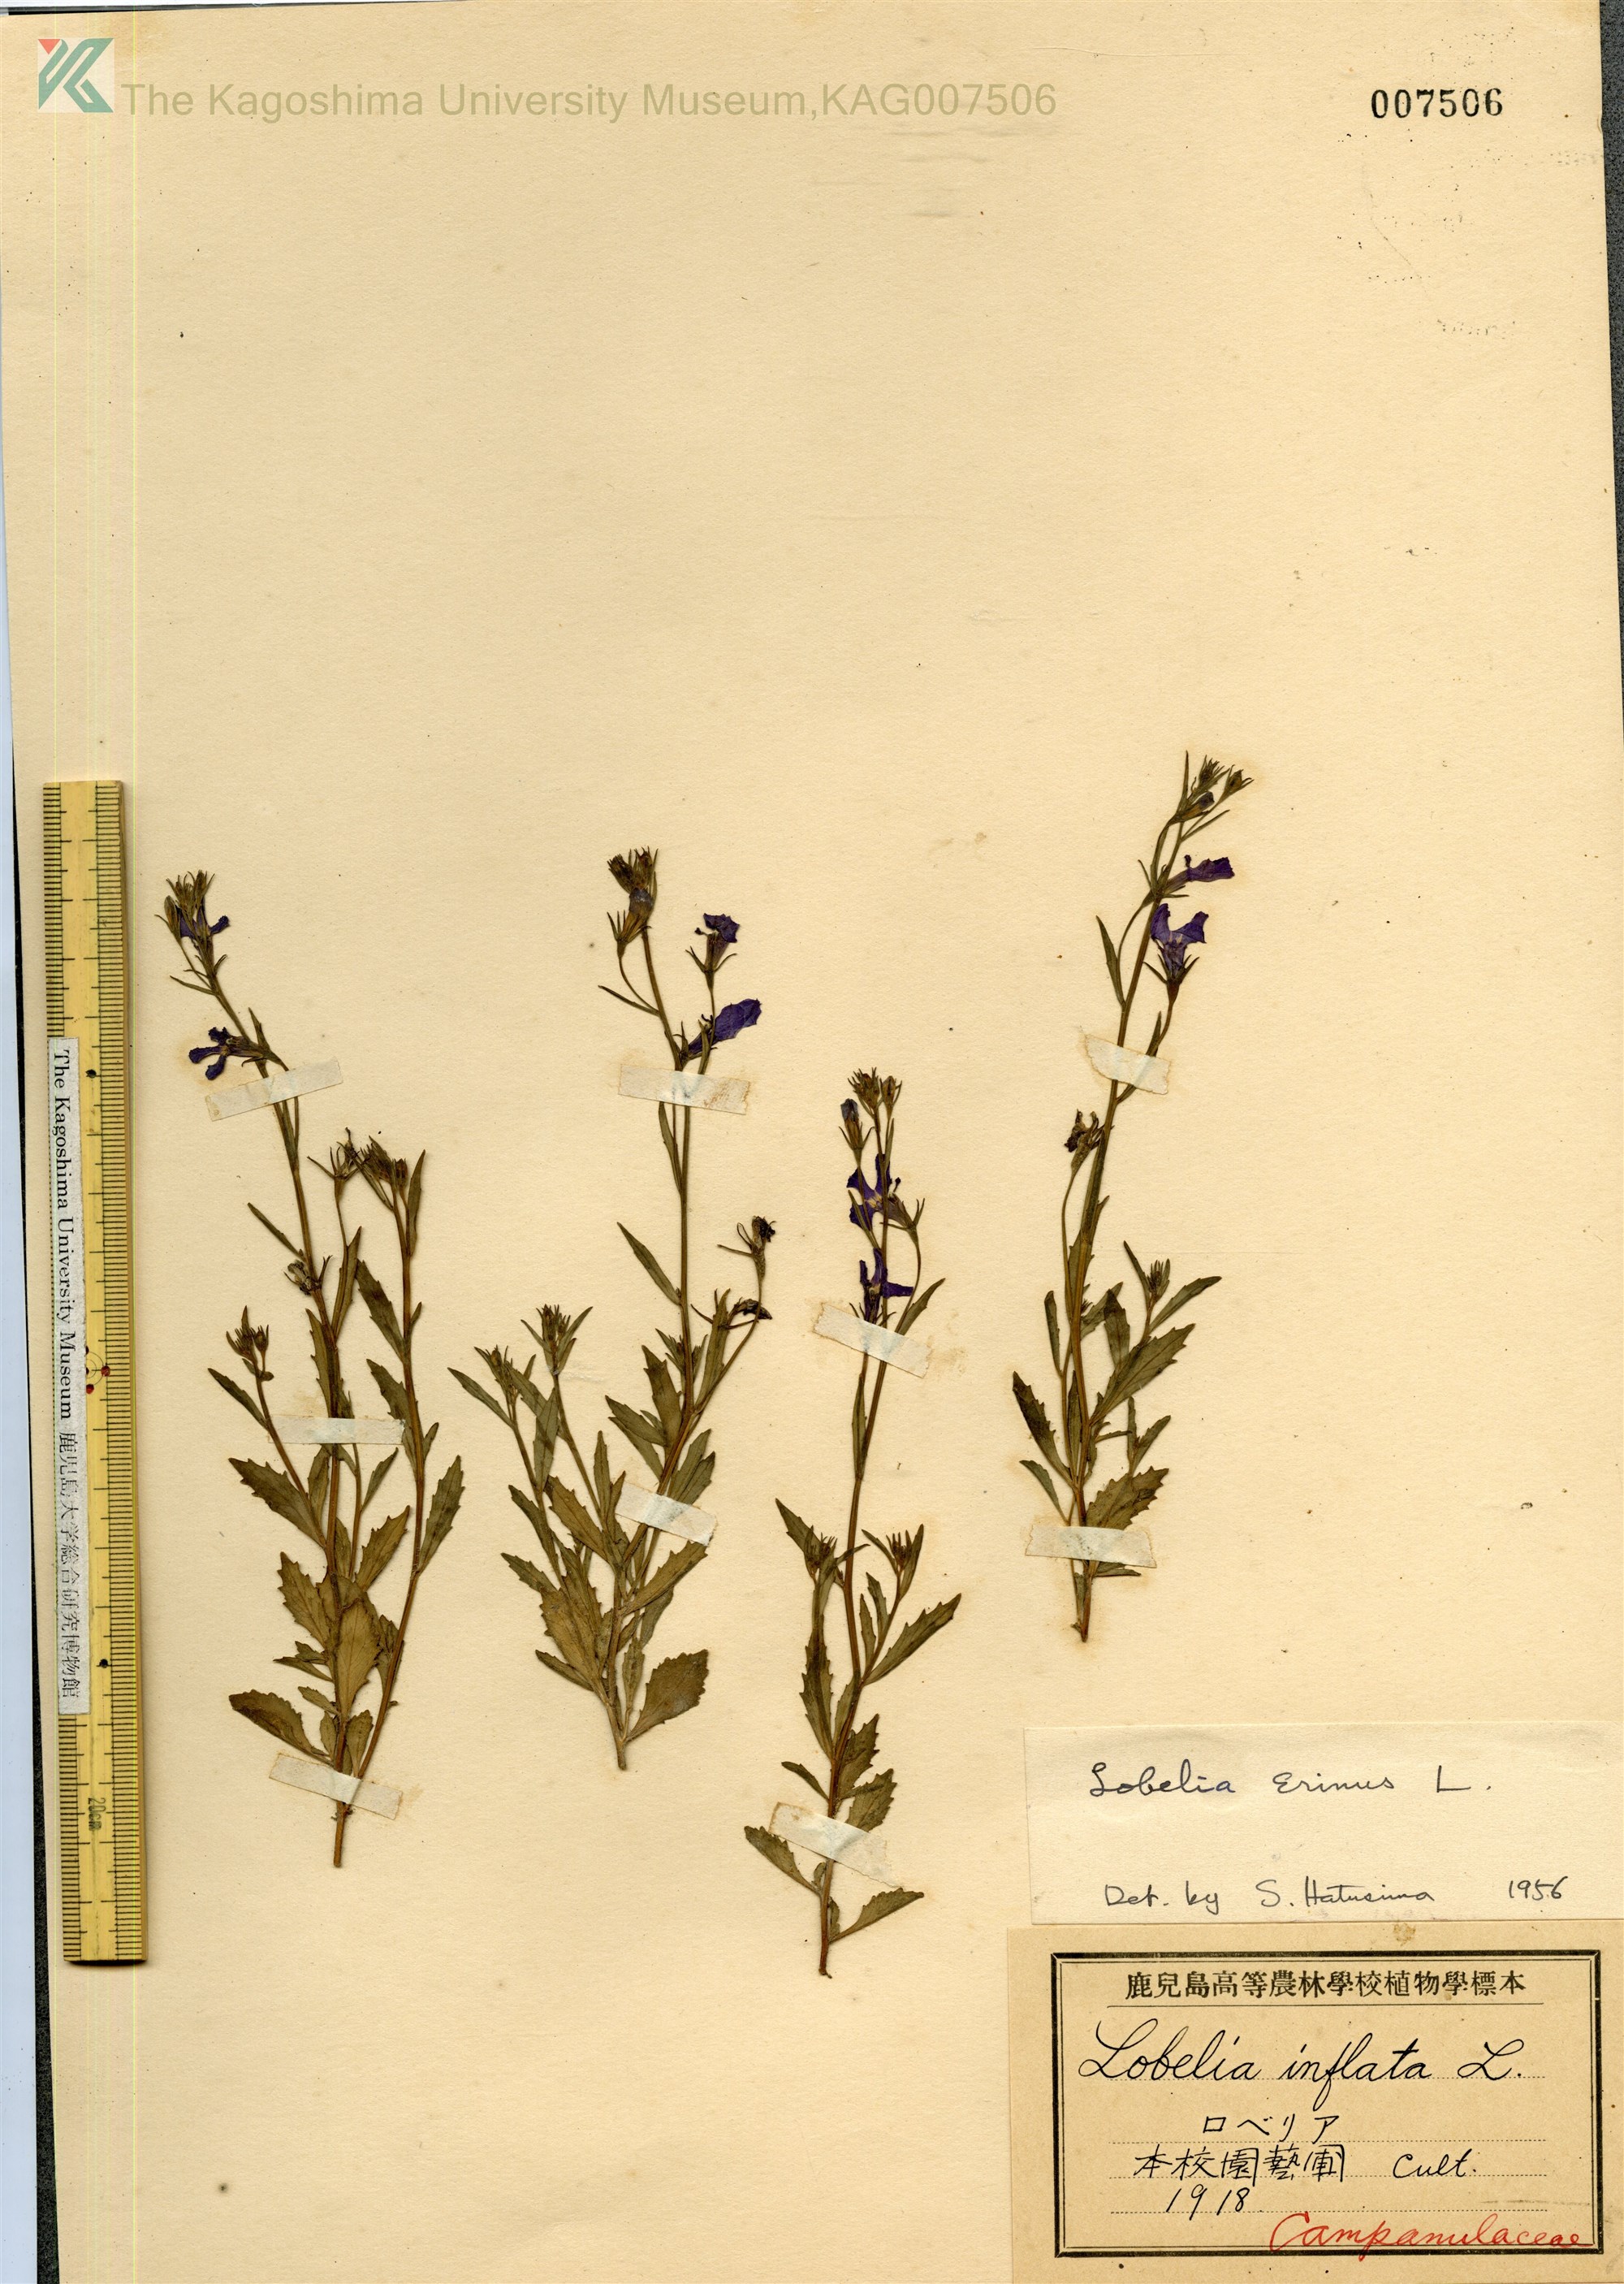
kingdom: Plantae
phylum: Tracheophyta
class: Magnoliopsida
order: Asterales
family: Campanulaceae
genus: Lobelia
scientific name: Lobelia erinus
